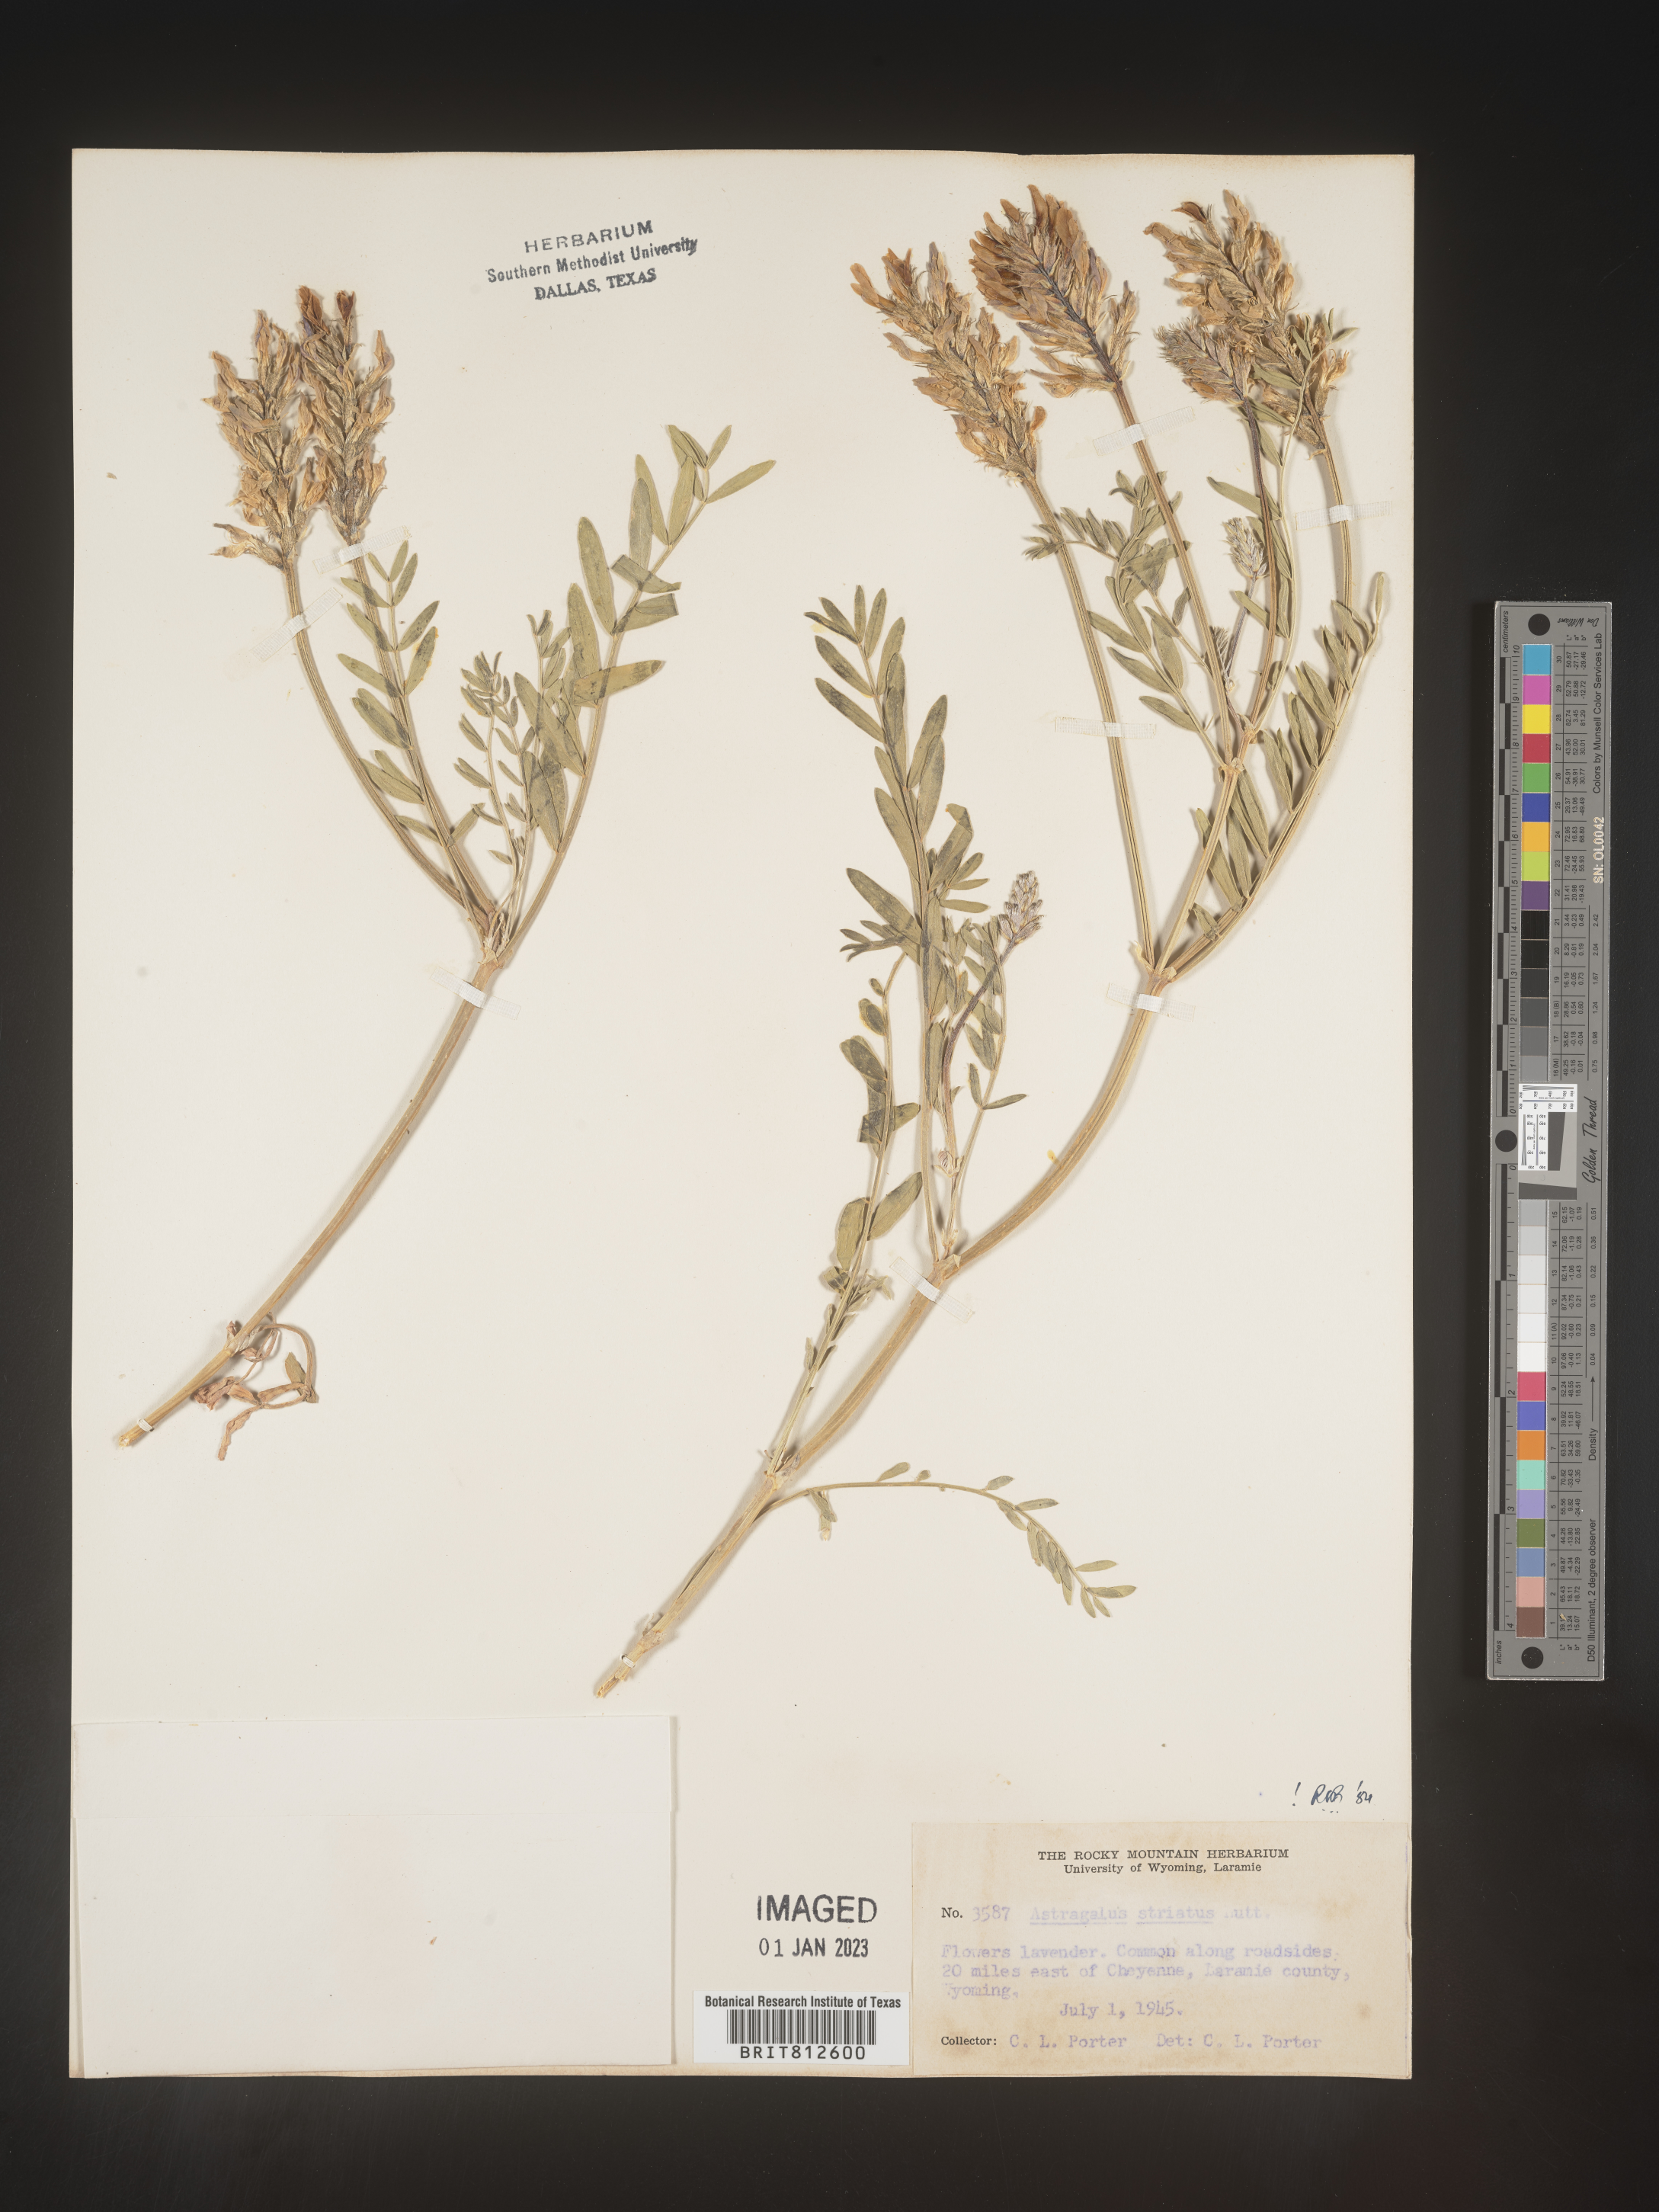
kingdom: Plantae
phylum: Tracheophyta
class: Magnoliopsida
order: Fabales
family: Fabaceae
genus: Astragalus
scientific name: Astragalus laxmannii
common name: Laxmann's milk-vetch
